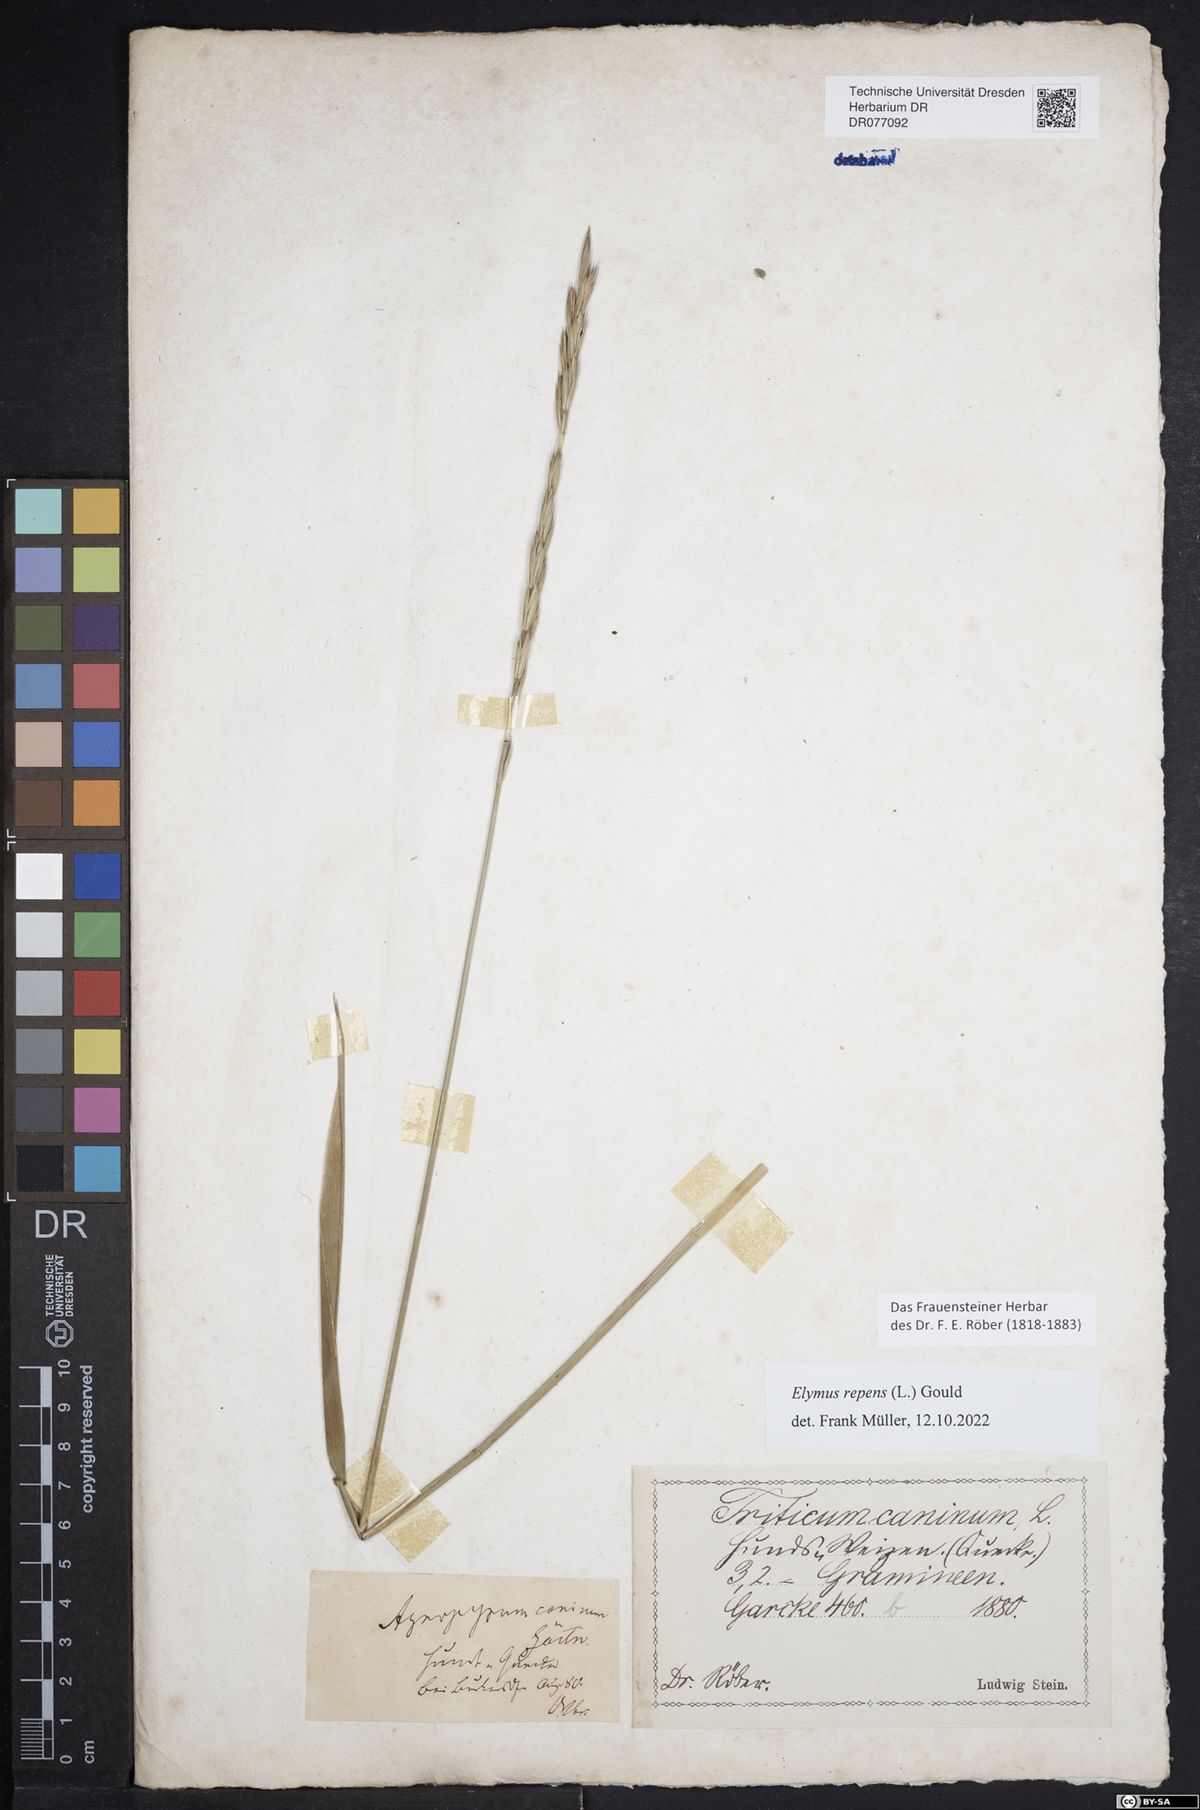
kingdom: Plantae
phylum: Tracheophyta
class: Liliopsida
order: Poales
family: Poaceae
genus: Elymus
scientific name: Elymus repens
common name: Quackgrass
